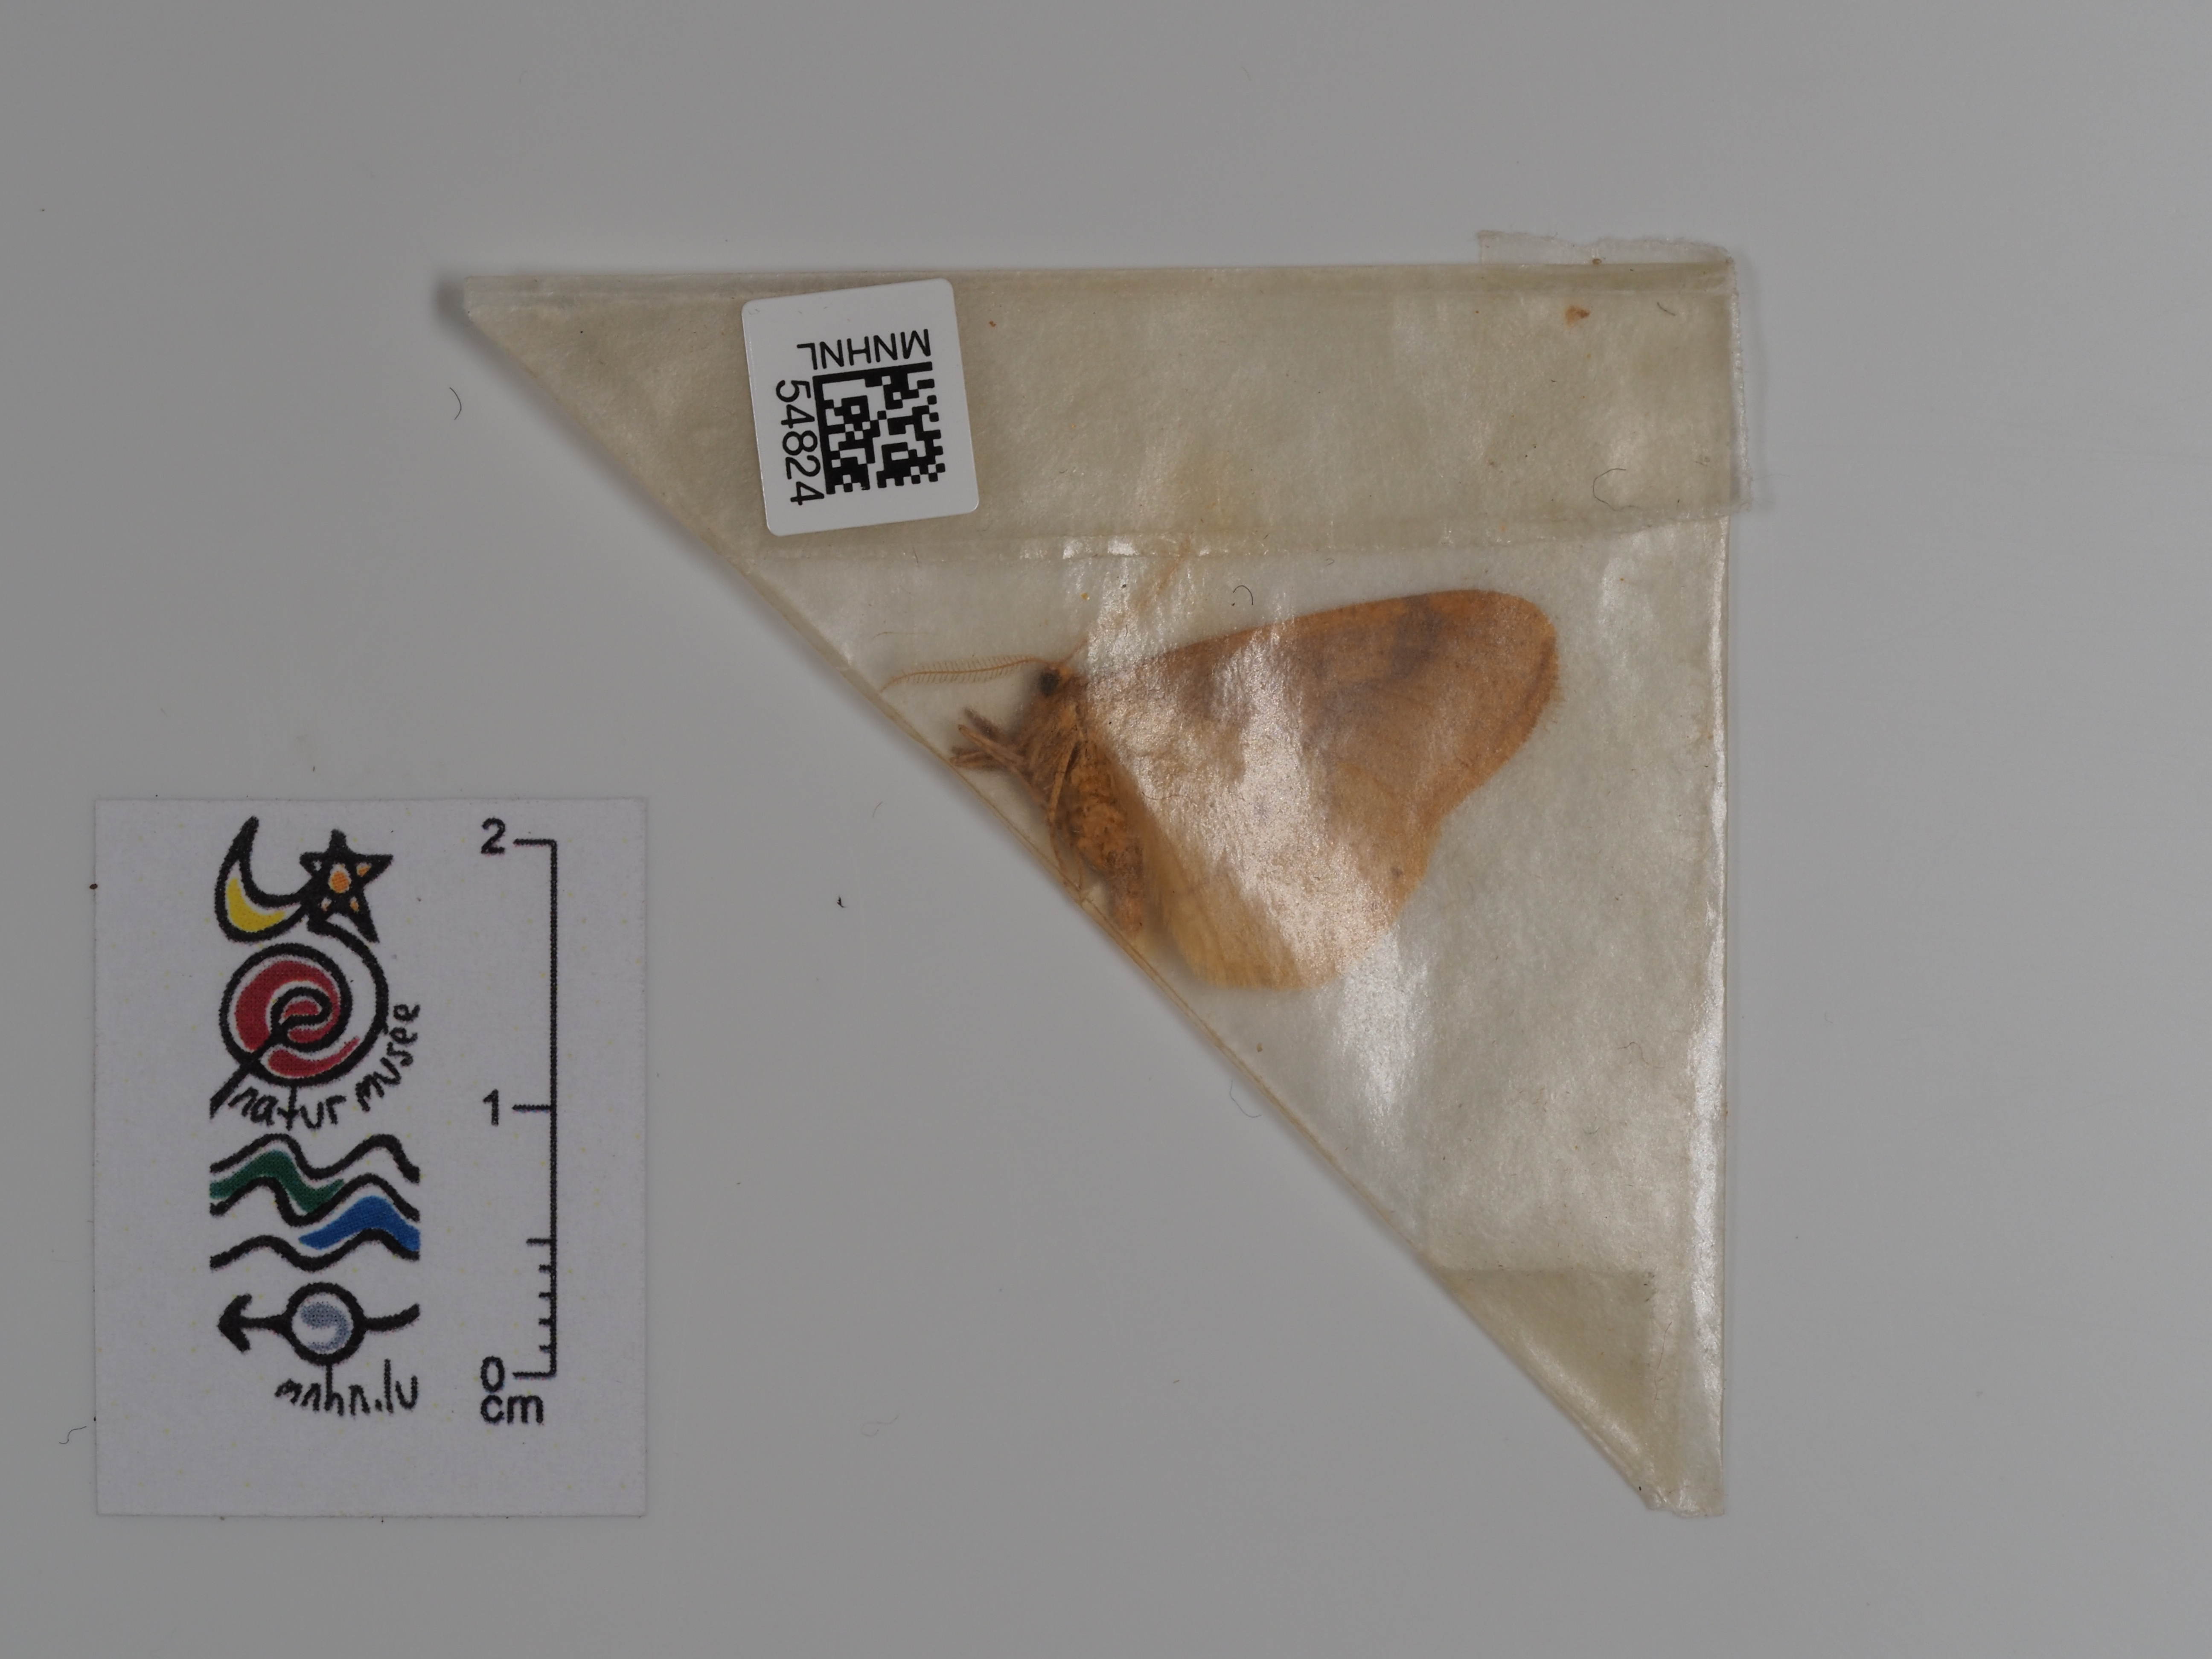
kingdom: Animalia
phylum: Arthropoda
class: Insecta
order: Lepidoptera
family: Geometridae
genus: Agriopis
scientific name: Agriopis aurantiaria
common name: Scarce umber
